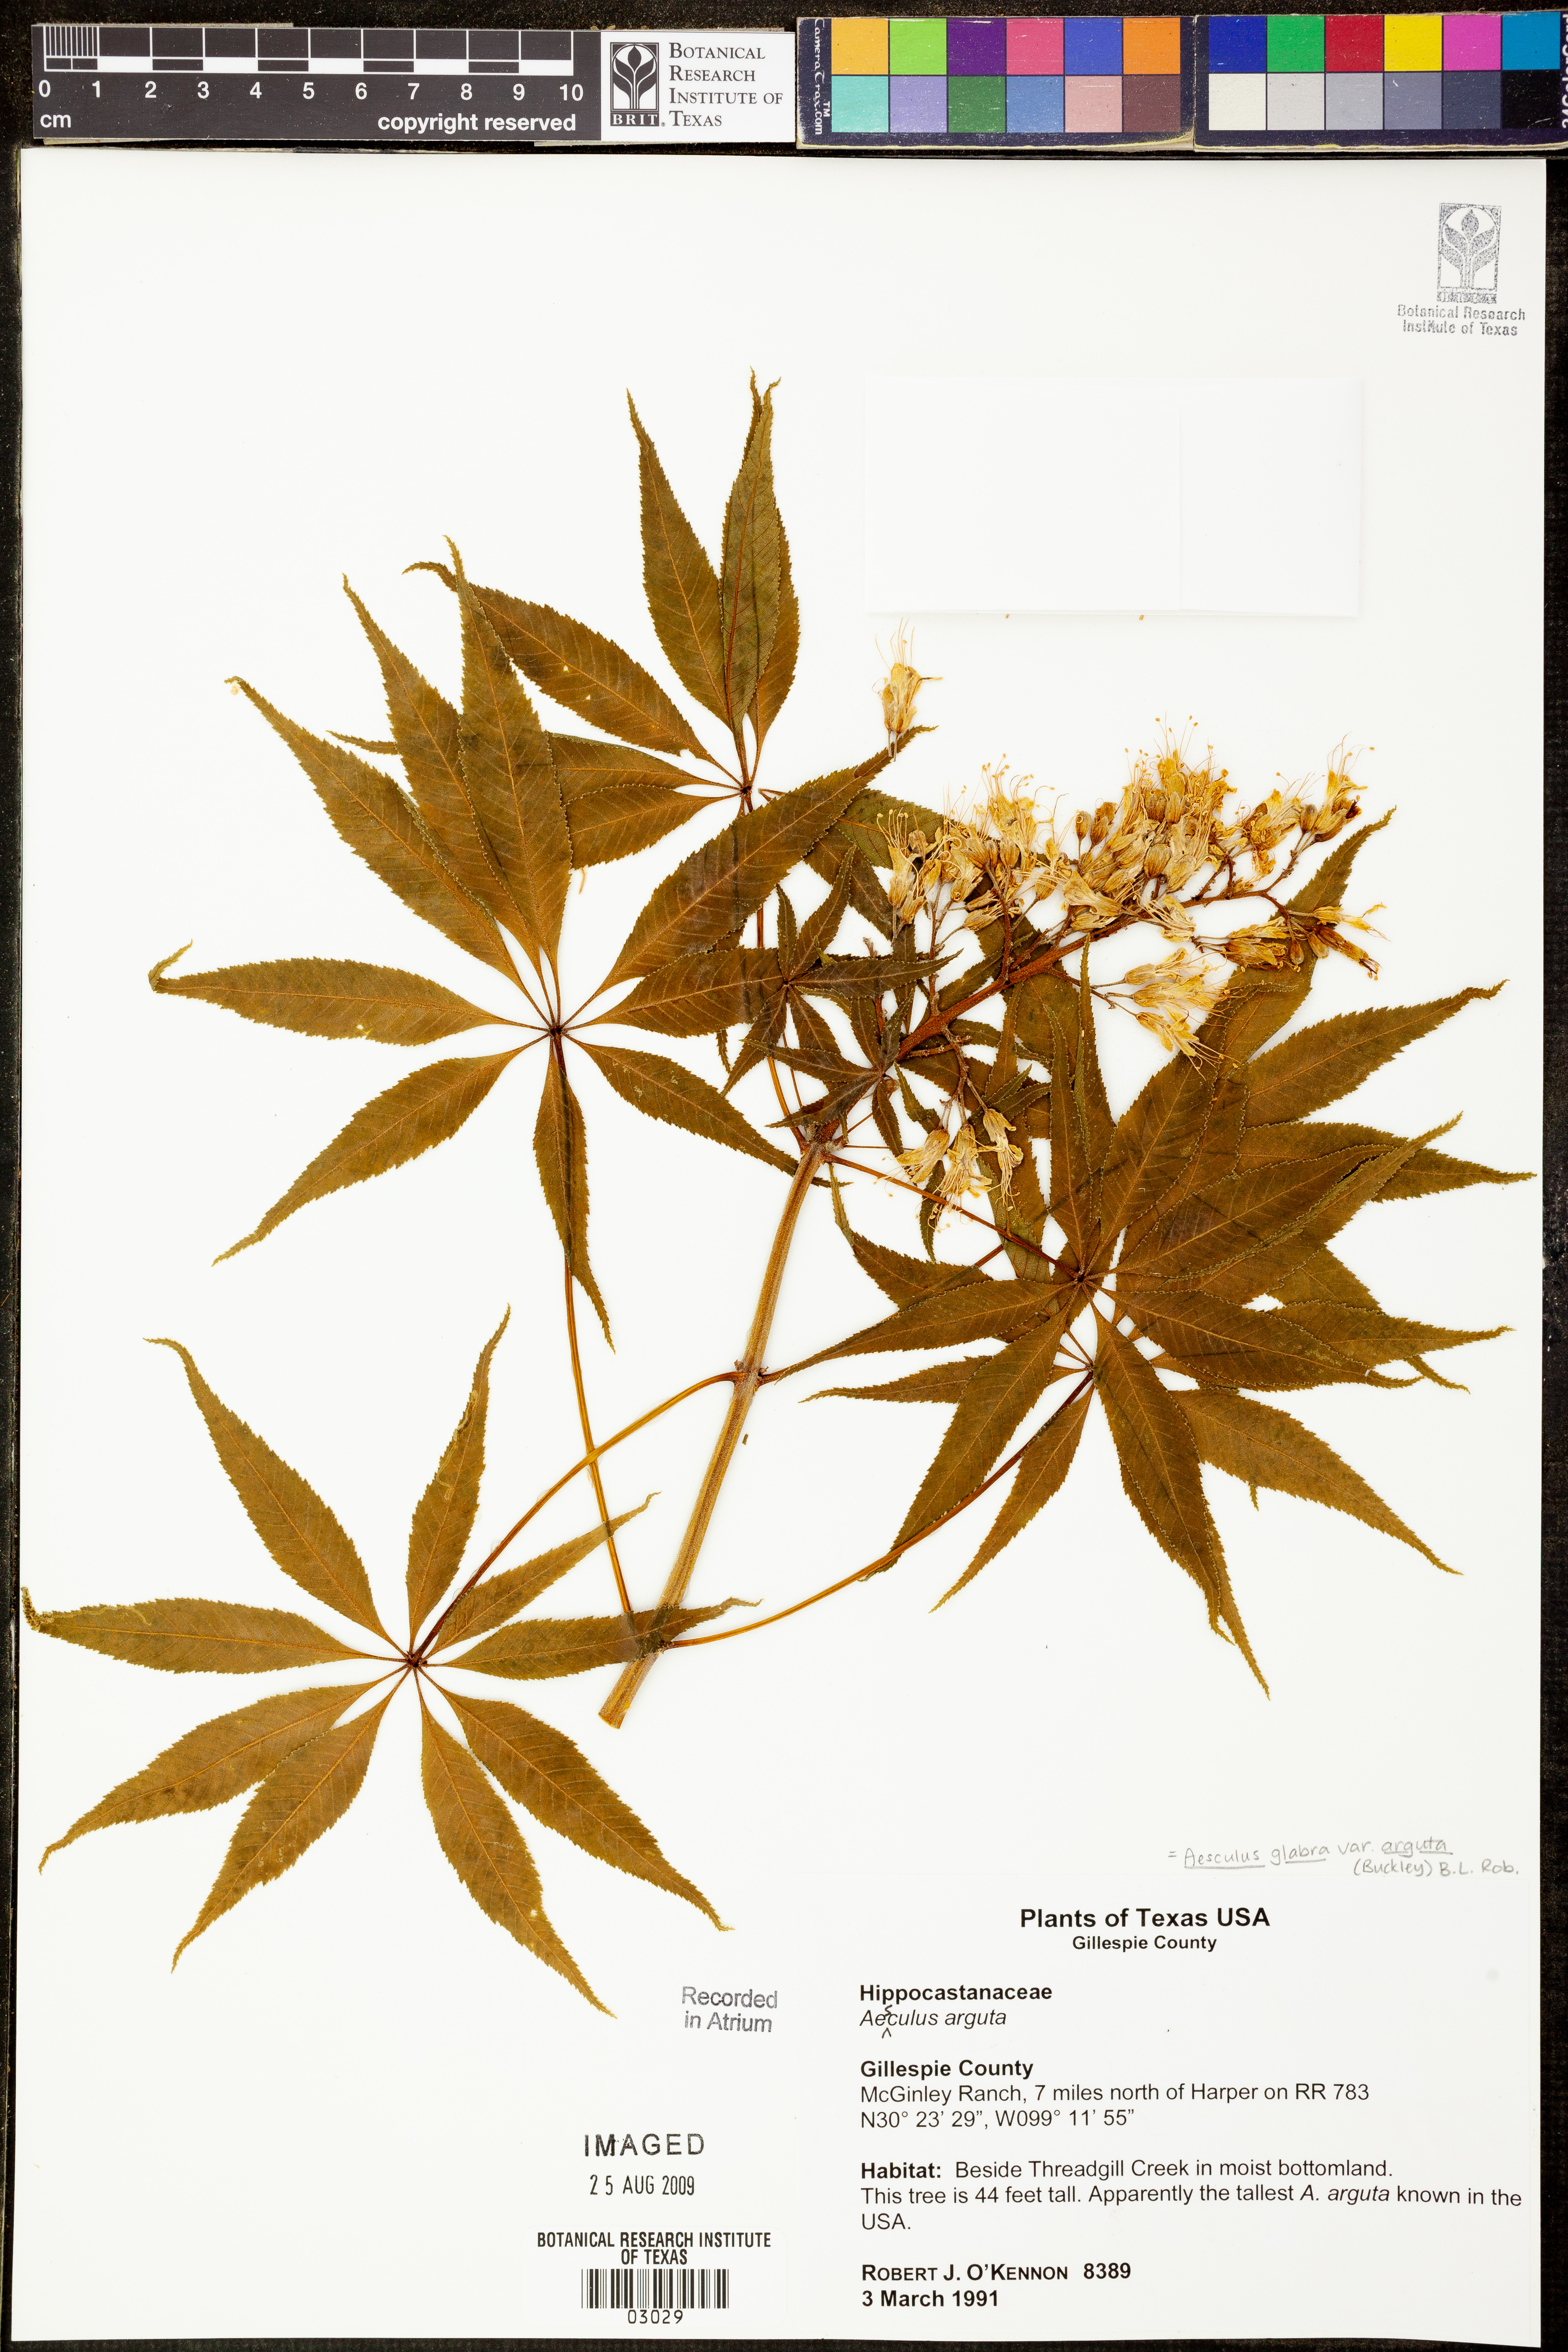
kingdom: Plantae
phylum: Tracheophyta
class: Magnoliopsida
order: Sapindales
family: Sapindaceae
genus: Aesculus
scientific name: Aesculus glabra
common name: Ohio buckeye
